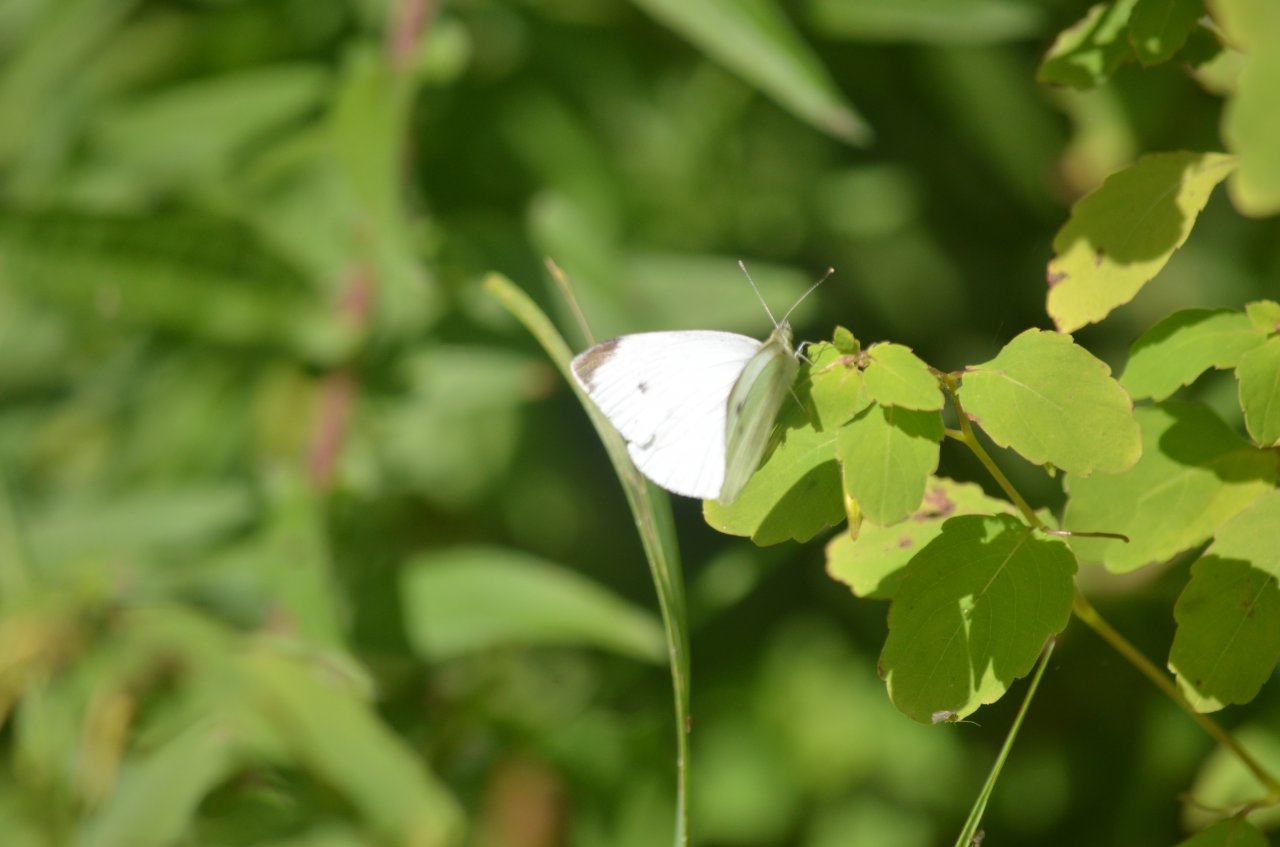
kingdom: Animalia
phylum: Arthropoda
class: Insecta
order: Lepidoptera
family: Pieridae
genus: Pieris
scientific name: Pieris rapae
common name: Cabbage White
